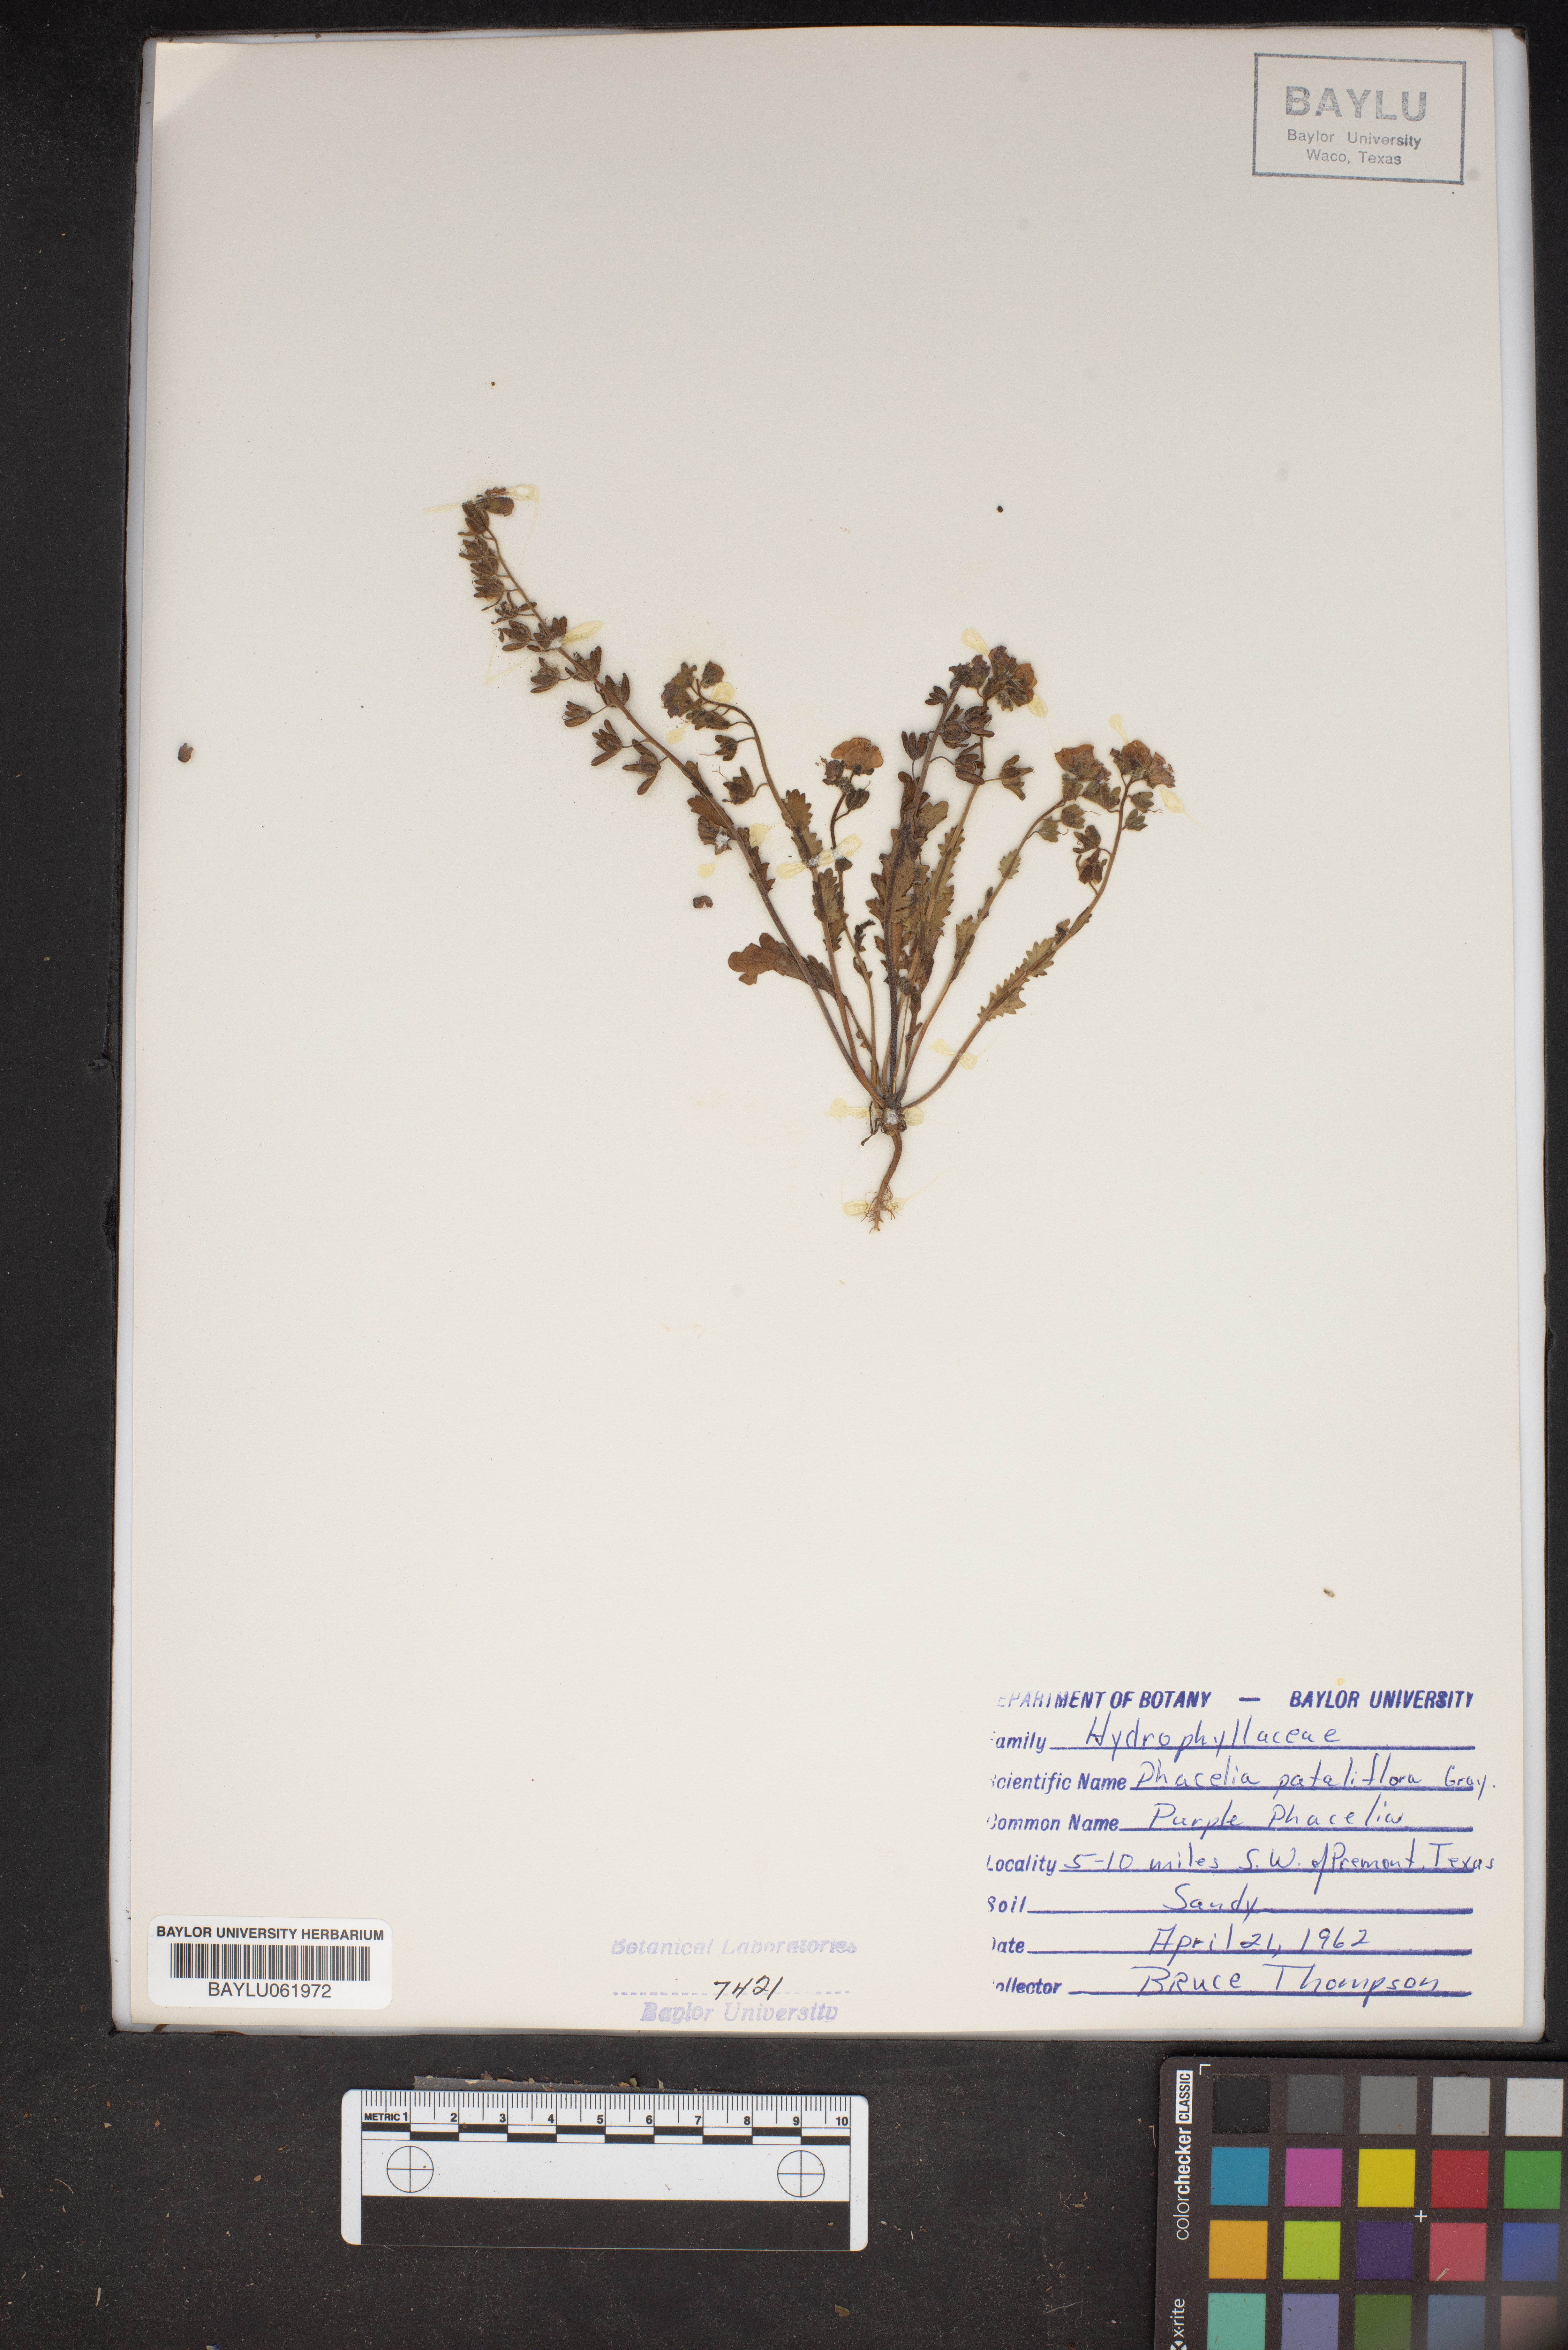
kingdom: Plantae
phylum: Tracheophyta
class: Magnoliopsida
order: Boraginales
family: Hydrophyllaceae
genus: Phacelia
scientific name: Phacelia patuliflora
